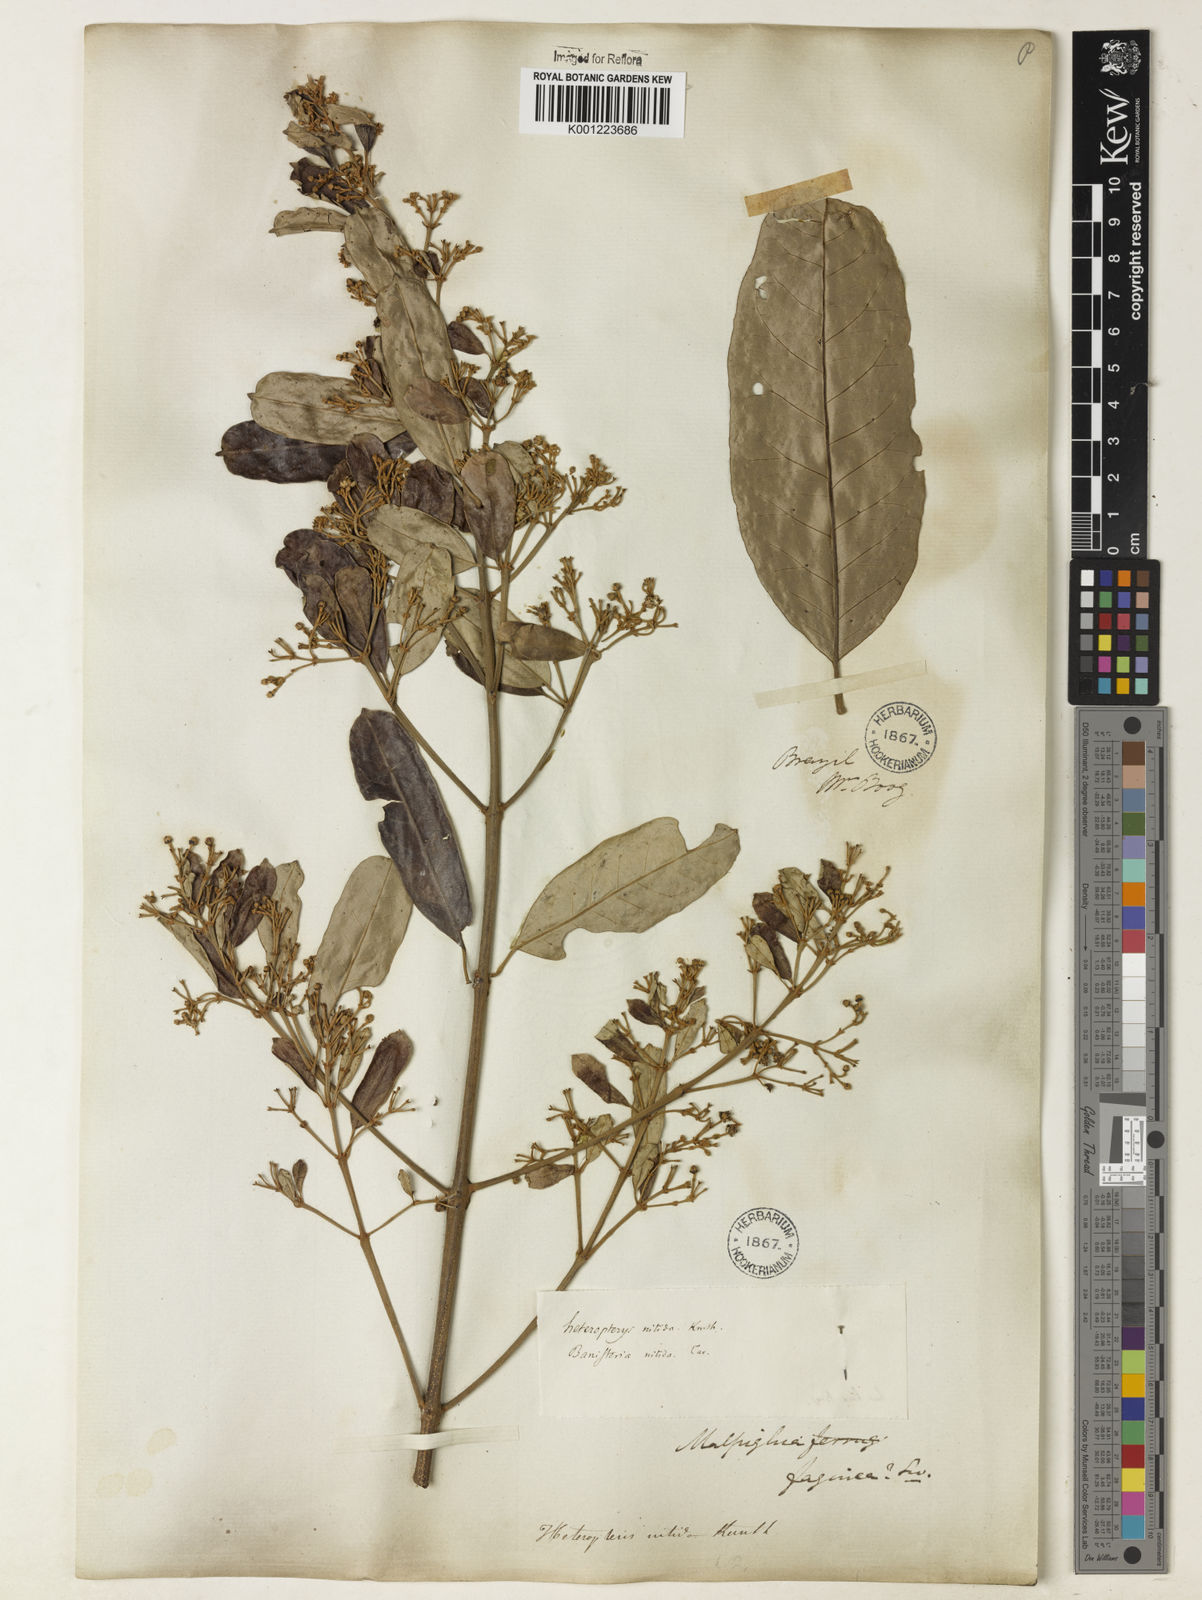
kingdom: Plantae
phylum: Tracheophyta
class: Magnoliopsida
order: Malpighiales
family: Malpighiaceae
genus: Heteropterys
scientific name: Heteropterys nitida
